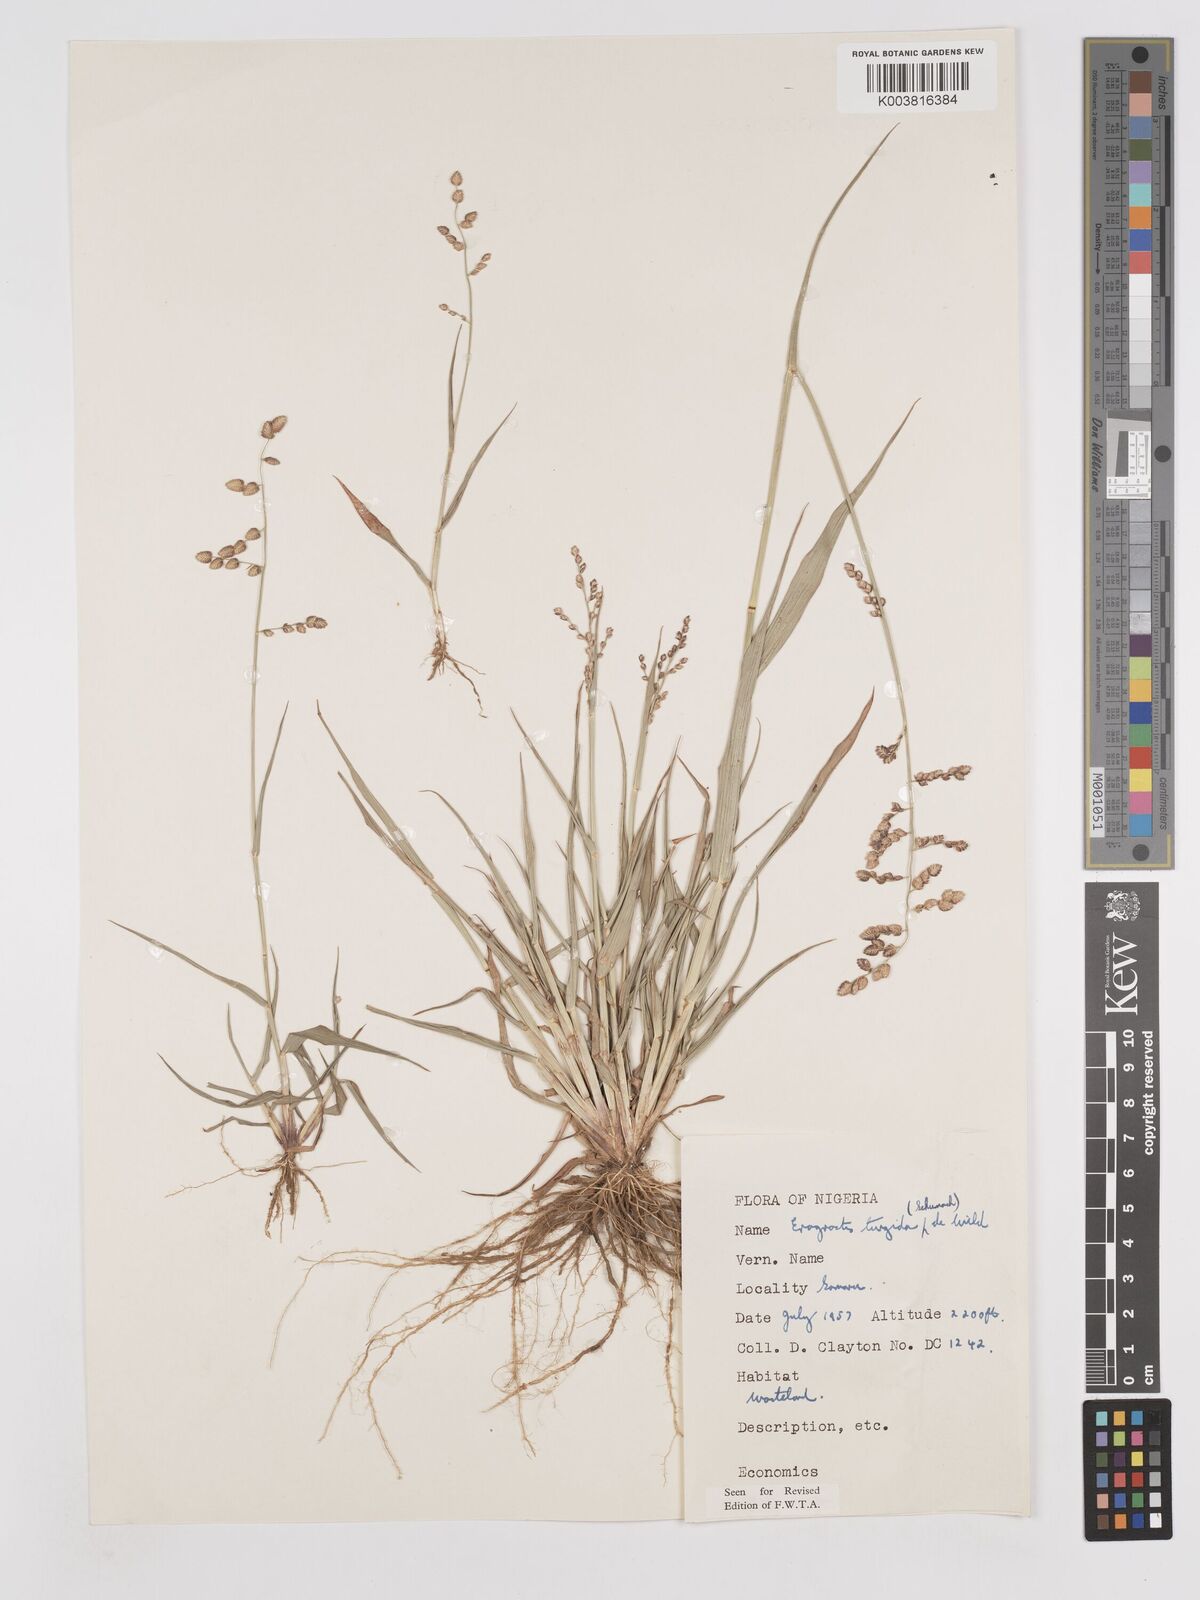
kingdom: Plantae
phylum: Tracheophyta
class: Liliopsida
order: Poales
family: Poaceae
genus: Eragrostis
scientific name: Eragrostis turgida
